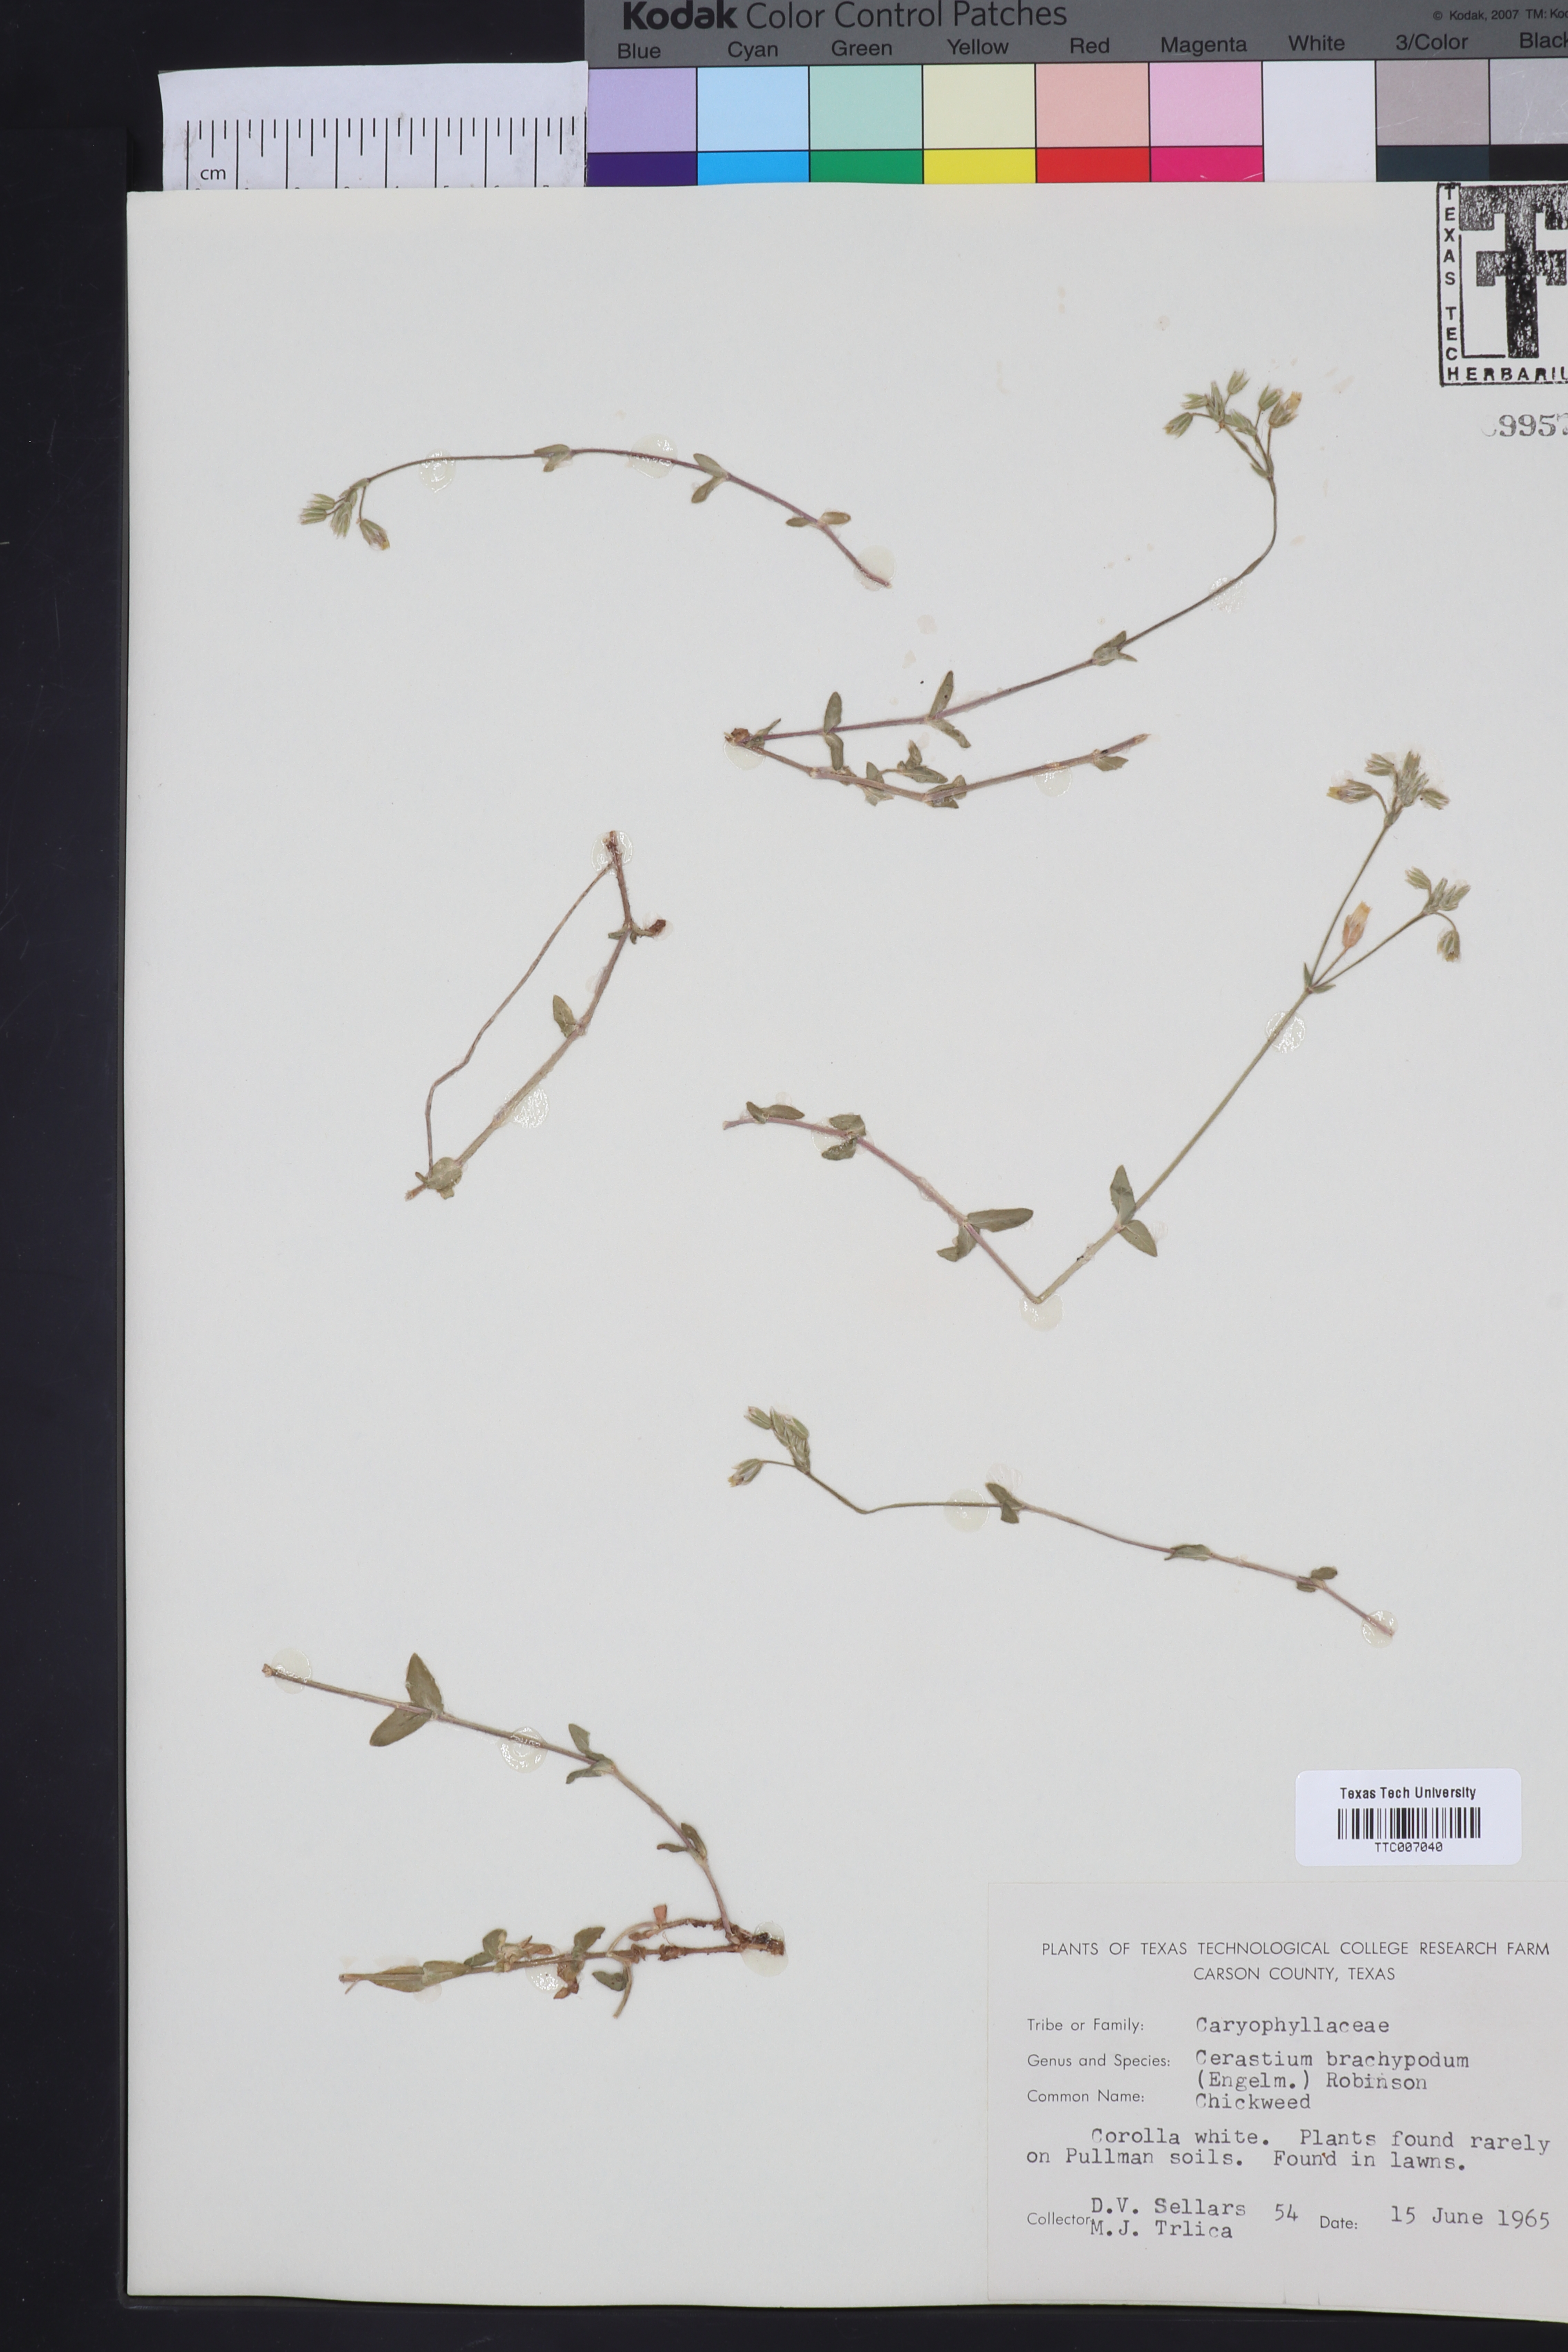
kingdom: Plantae
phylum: Tracheophyta
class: Magnoliopsida
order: Caryophyllales
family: Caryophyllaceae
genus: Cerastium
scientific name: Cerastium brachypodum
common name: Short-pedicelled nodding chickweed
